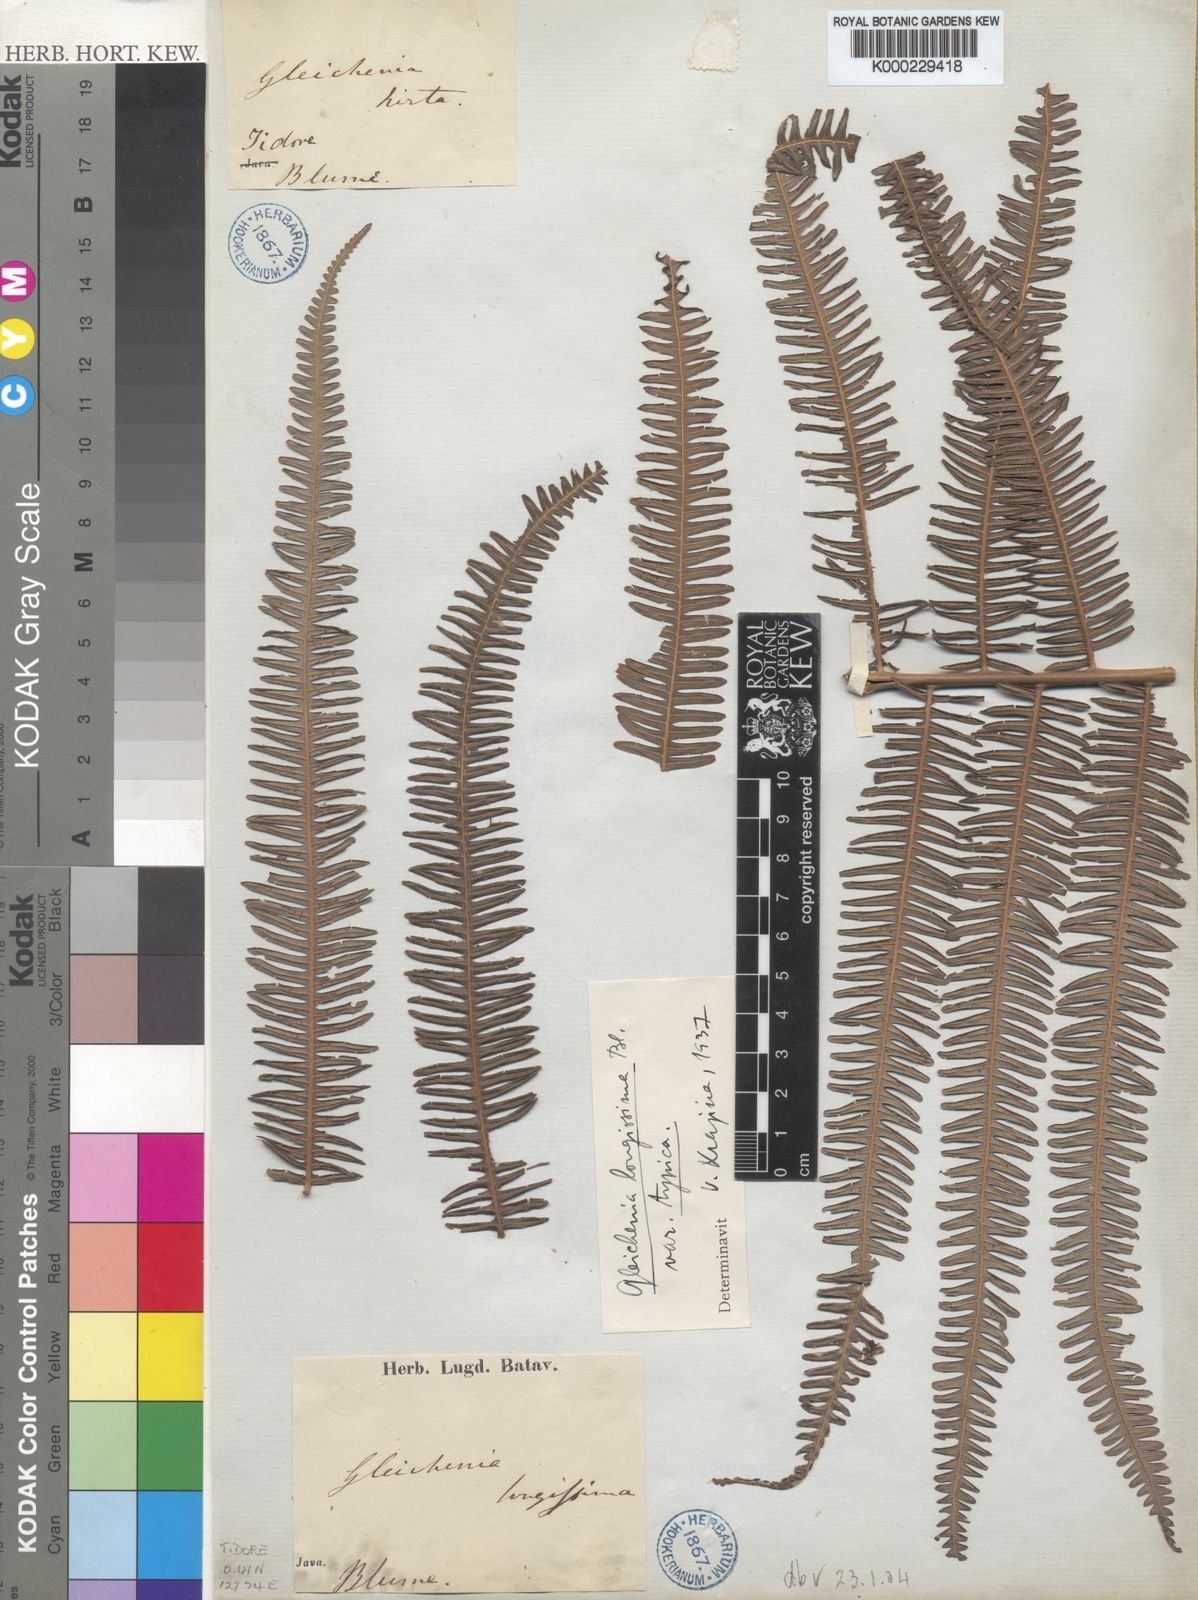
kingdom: Plantae
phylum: Tracheophyta
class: Polypodiopsida
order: Gleicheniales
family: Gleicheniaceae
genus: Diplopterygium
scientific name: Diplopterygium longissimum
